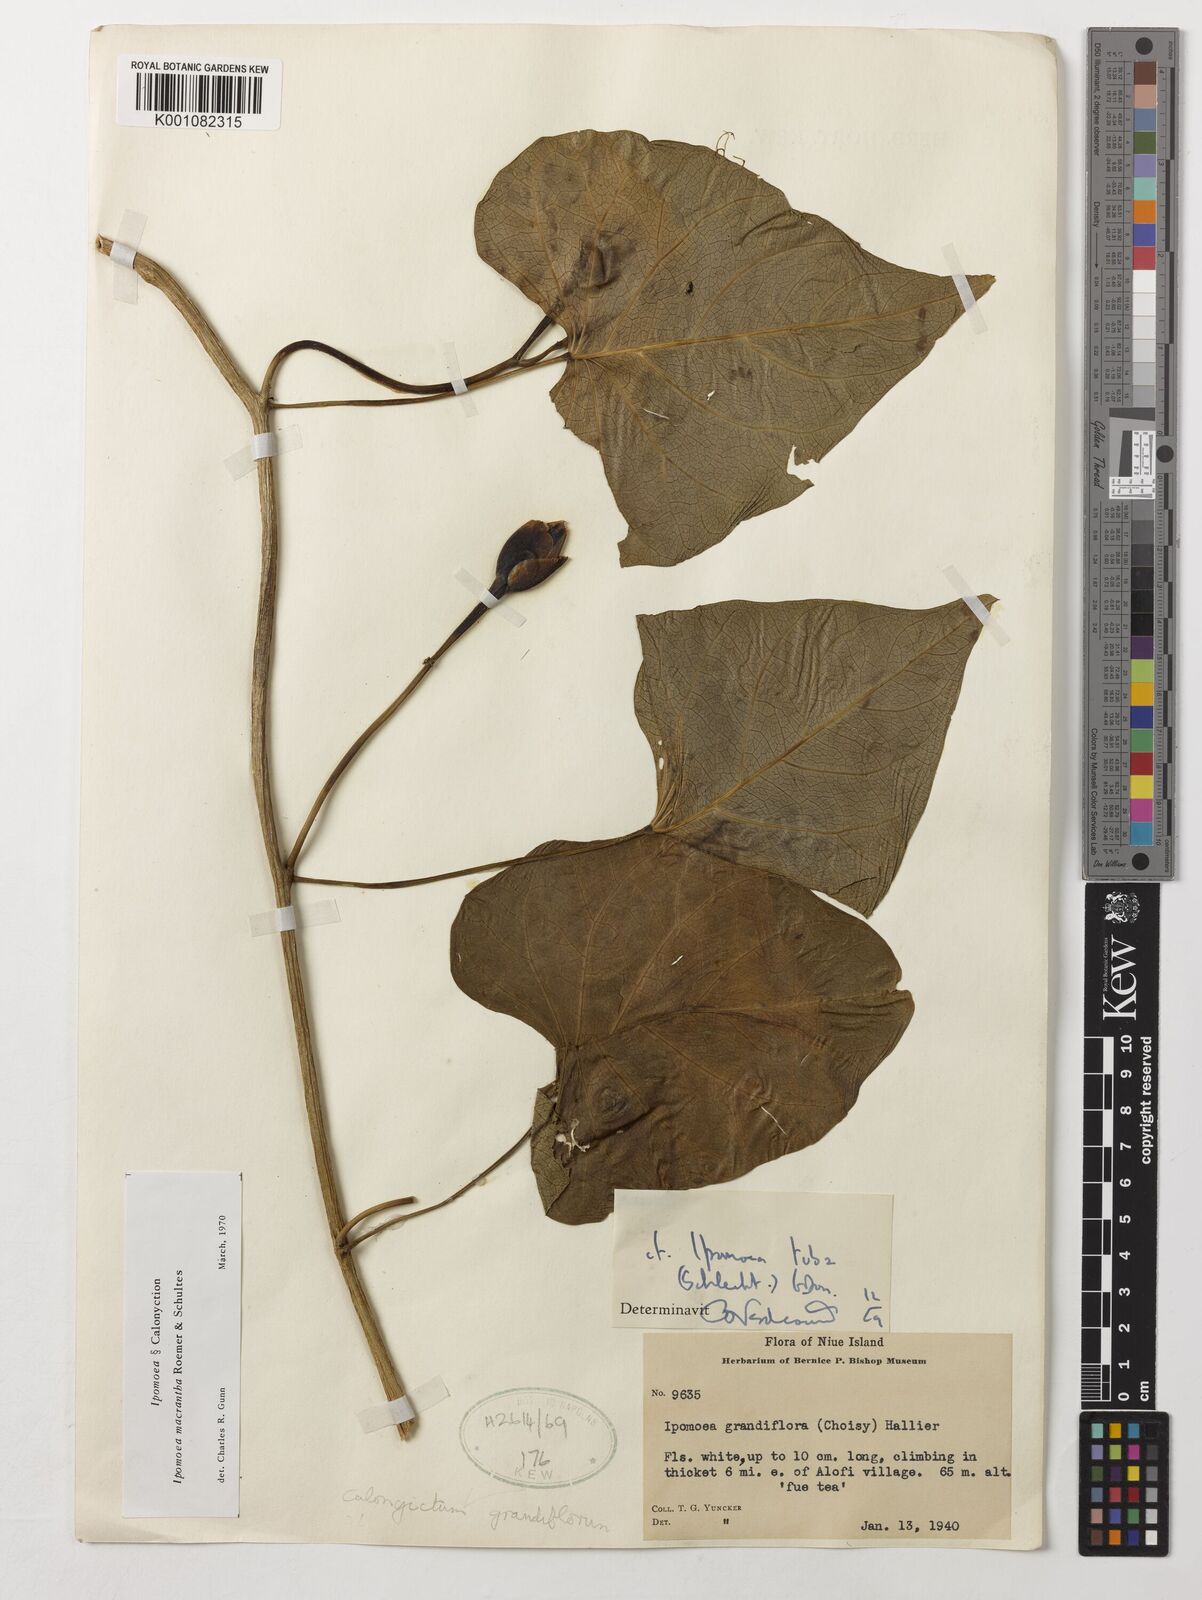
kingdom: Plantae
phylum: Tracheophyta
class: Magnoliopsida
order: Solanales
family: Convolvulaceae
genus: Ipomoea
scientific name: Ipomoea violacea
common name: Beach moonflower
